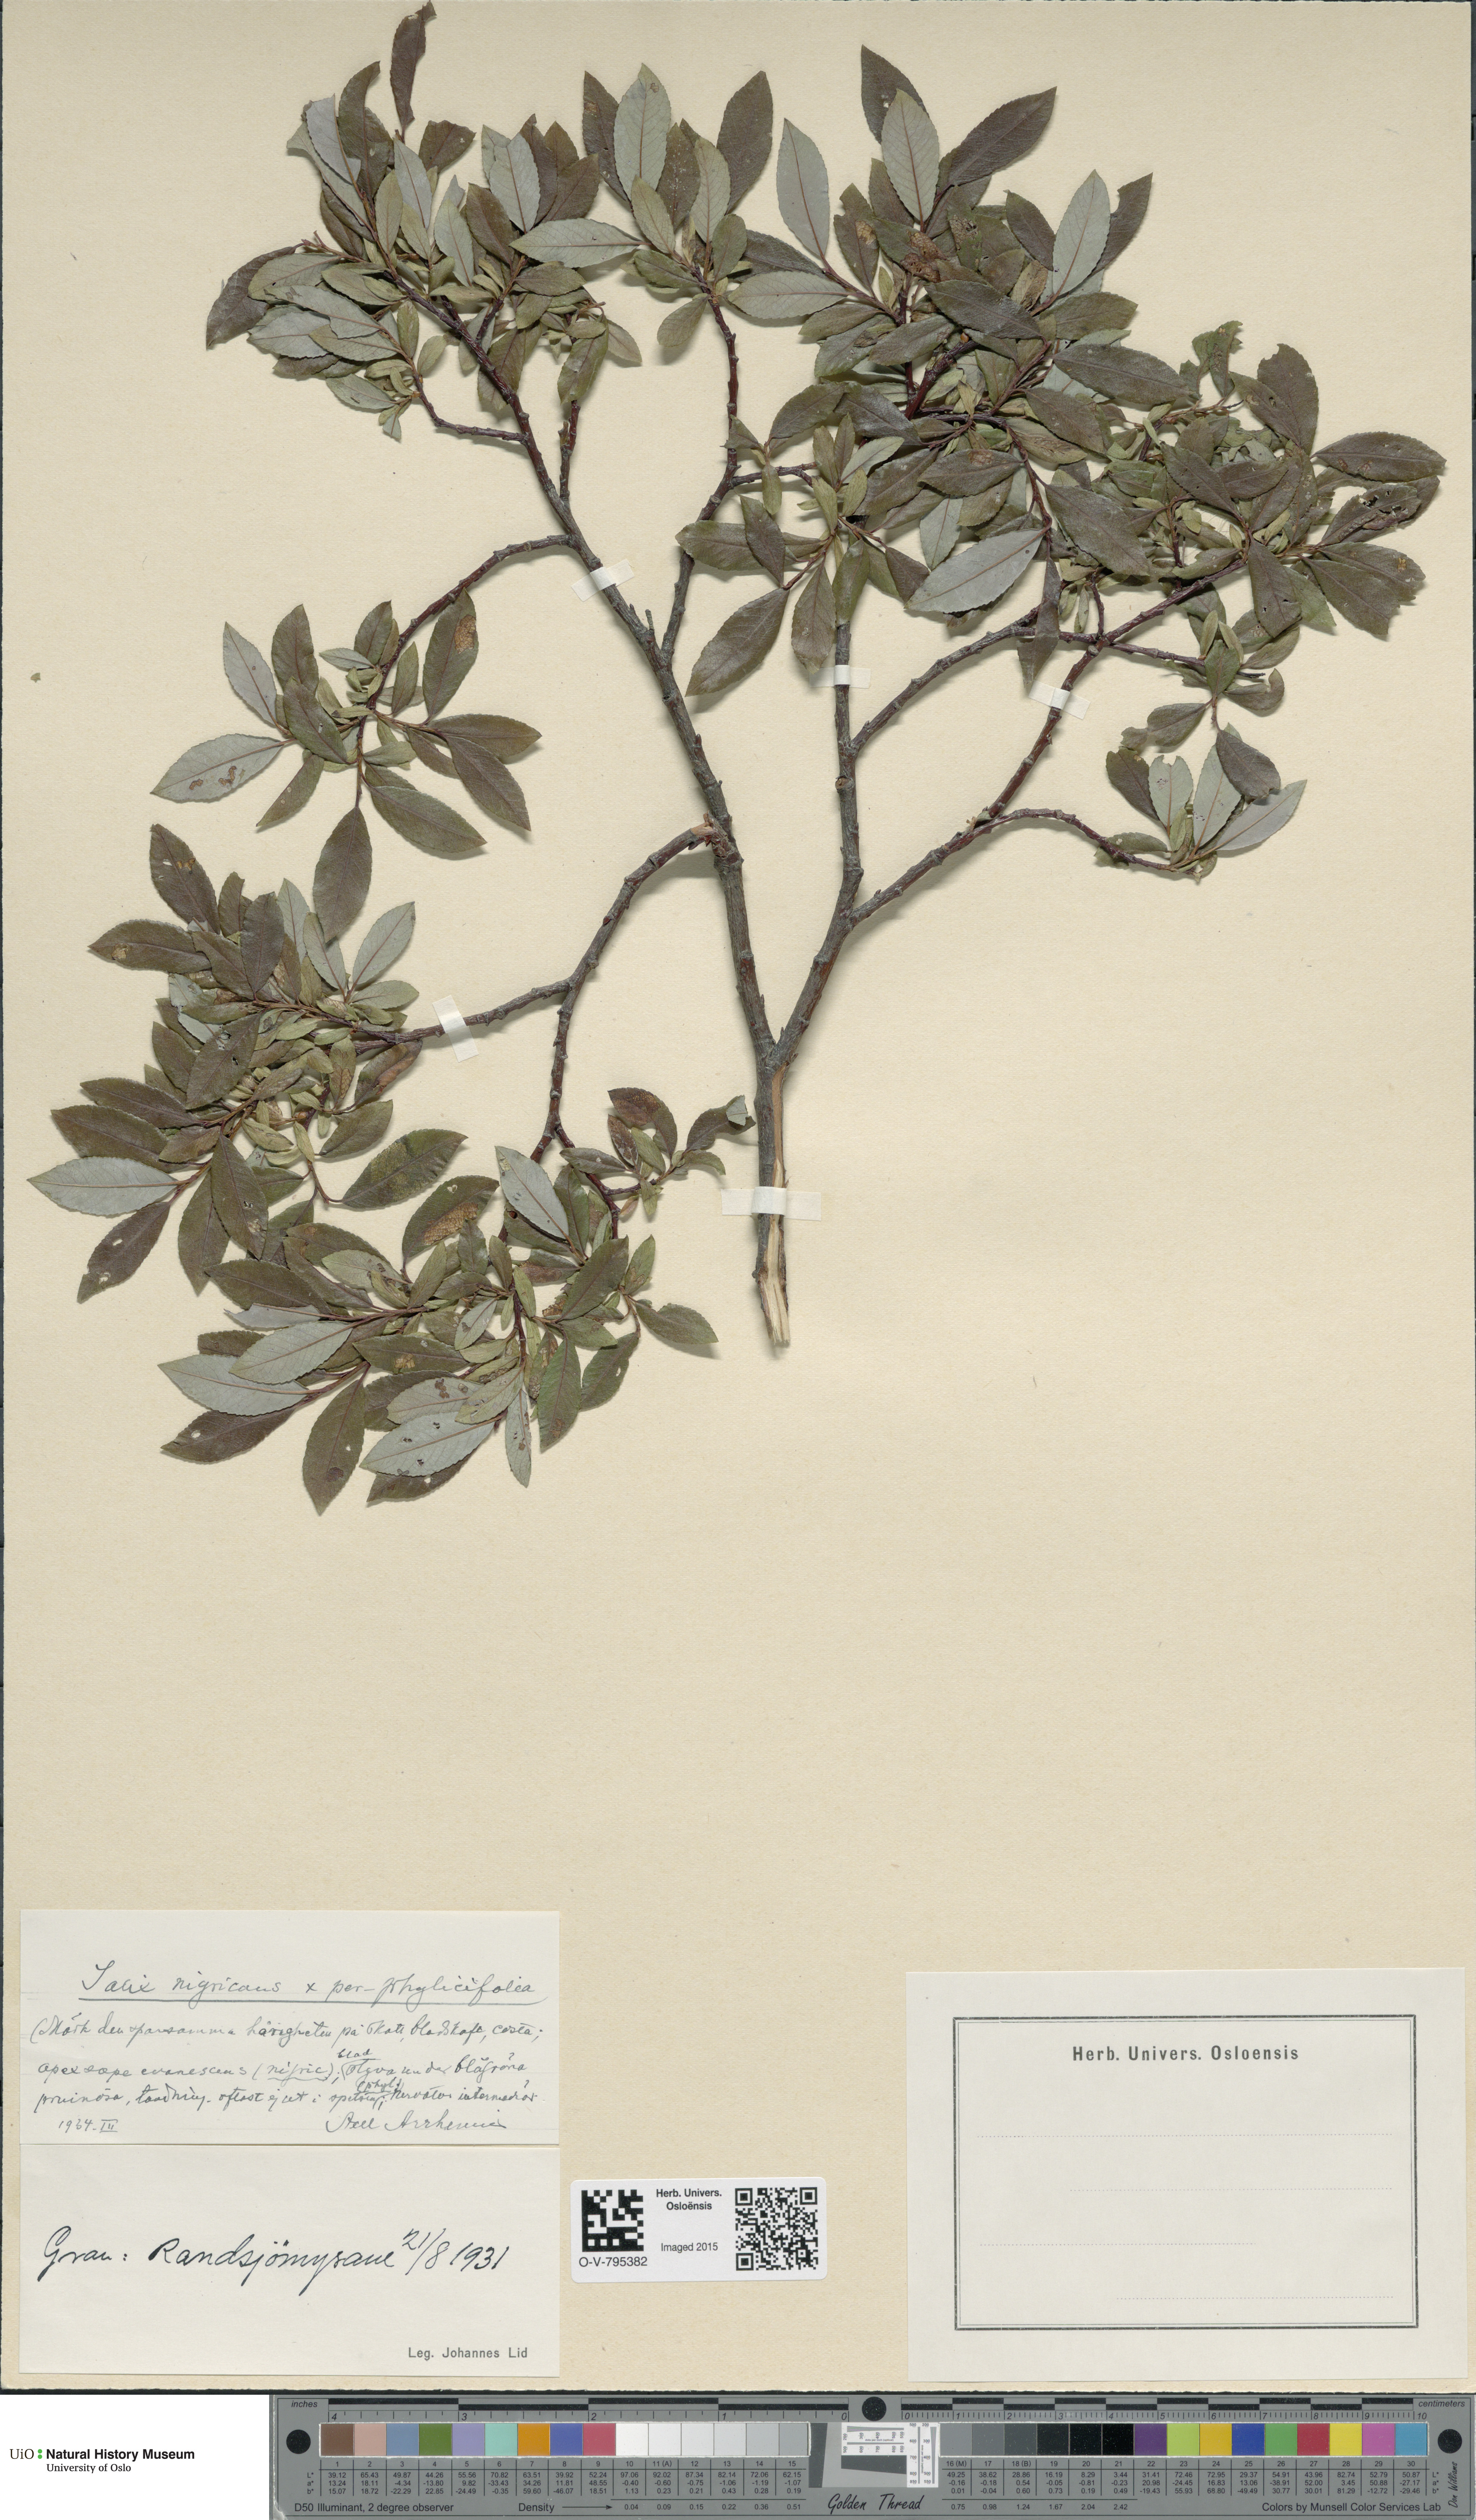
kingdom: Plantae
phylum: Tracheophyta
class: Magnoliopsida
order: Malpighiales
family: Salicaceae
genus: Salix
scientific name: Salix
